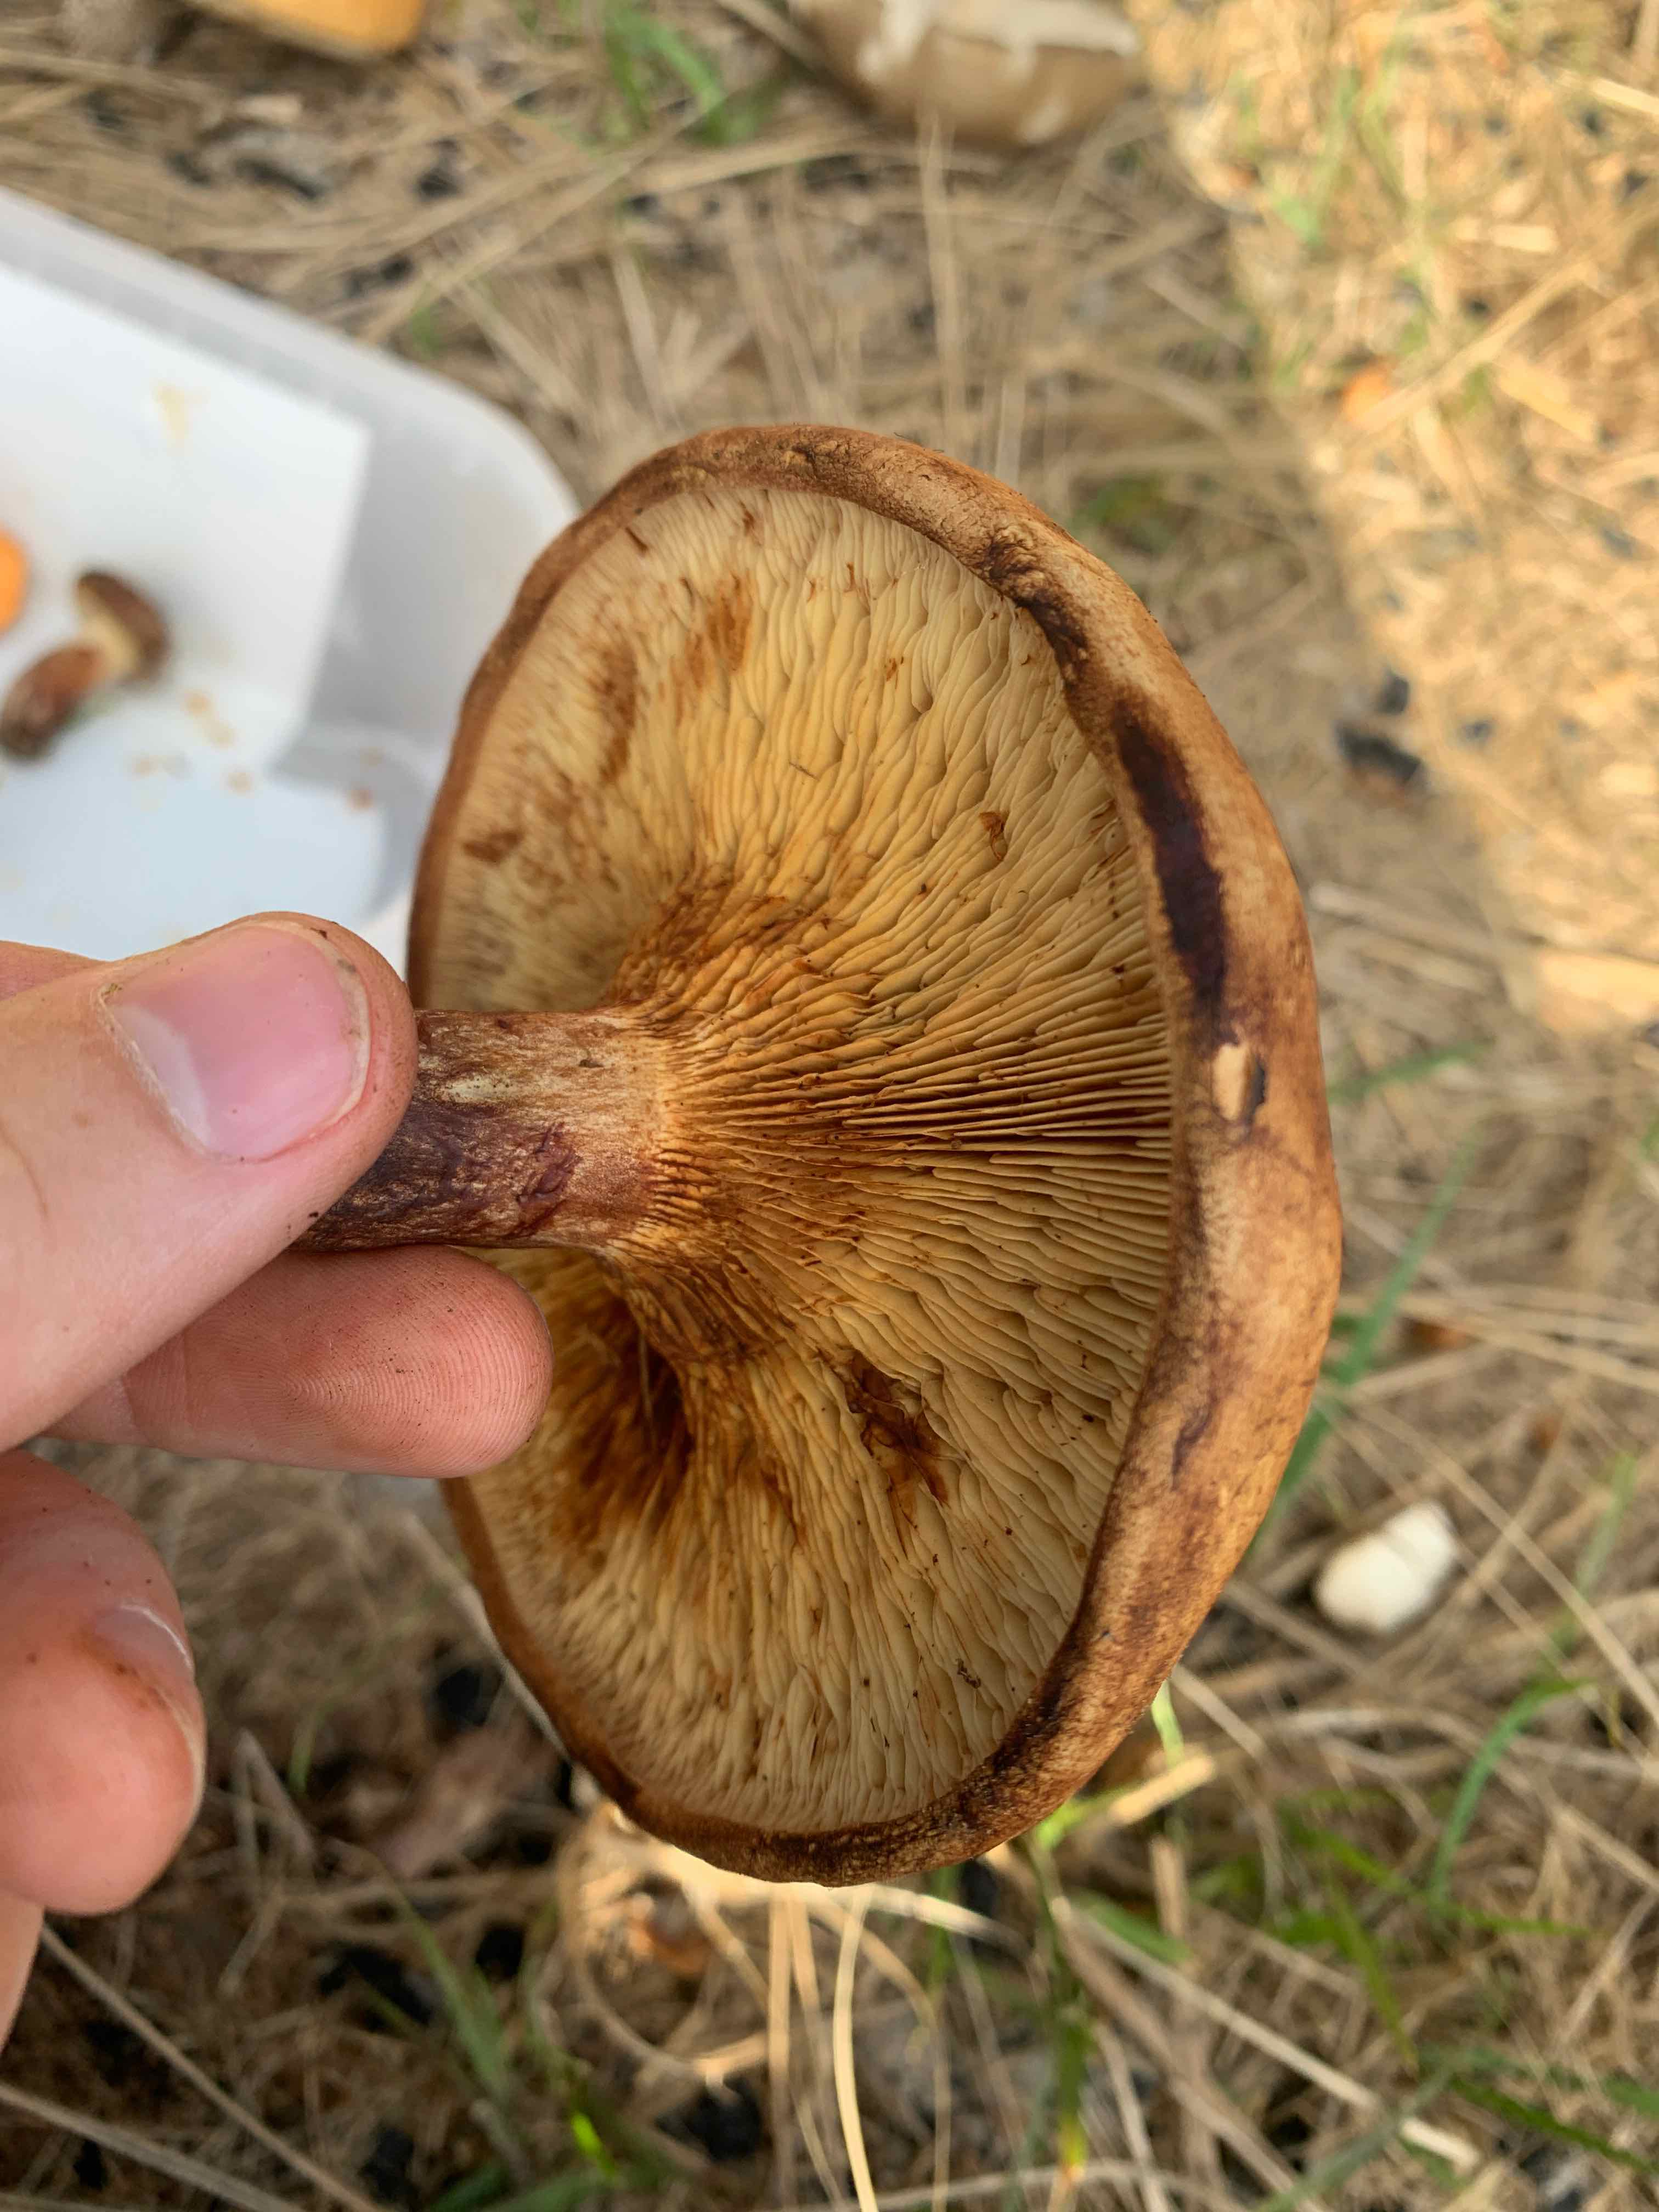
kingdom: Fungi
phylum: Basidiomycota
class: Agaricomycetes
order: Boletales
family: Paxillaceae
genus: Paxillus
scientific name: Paxillus involutus
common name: almindelig netbladhat
